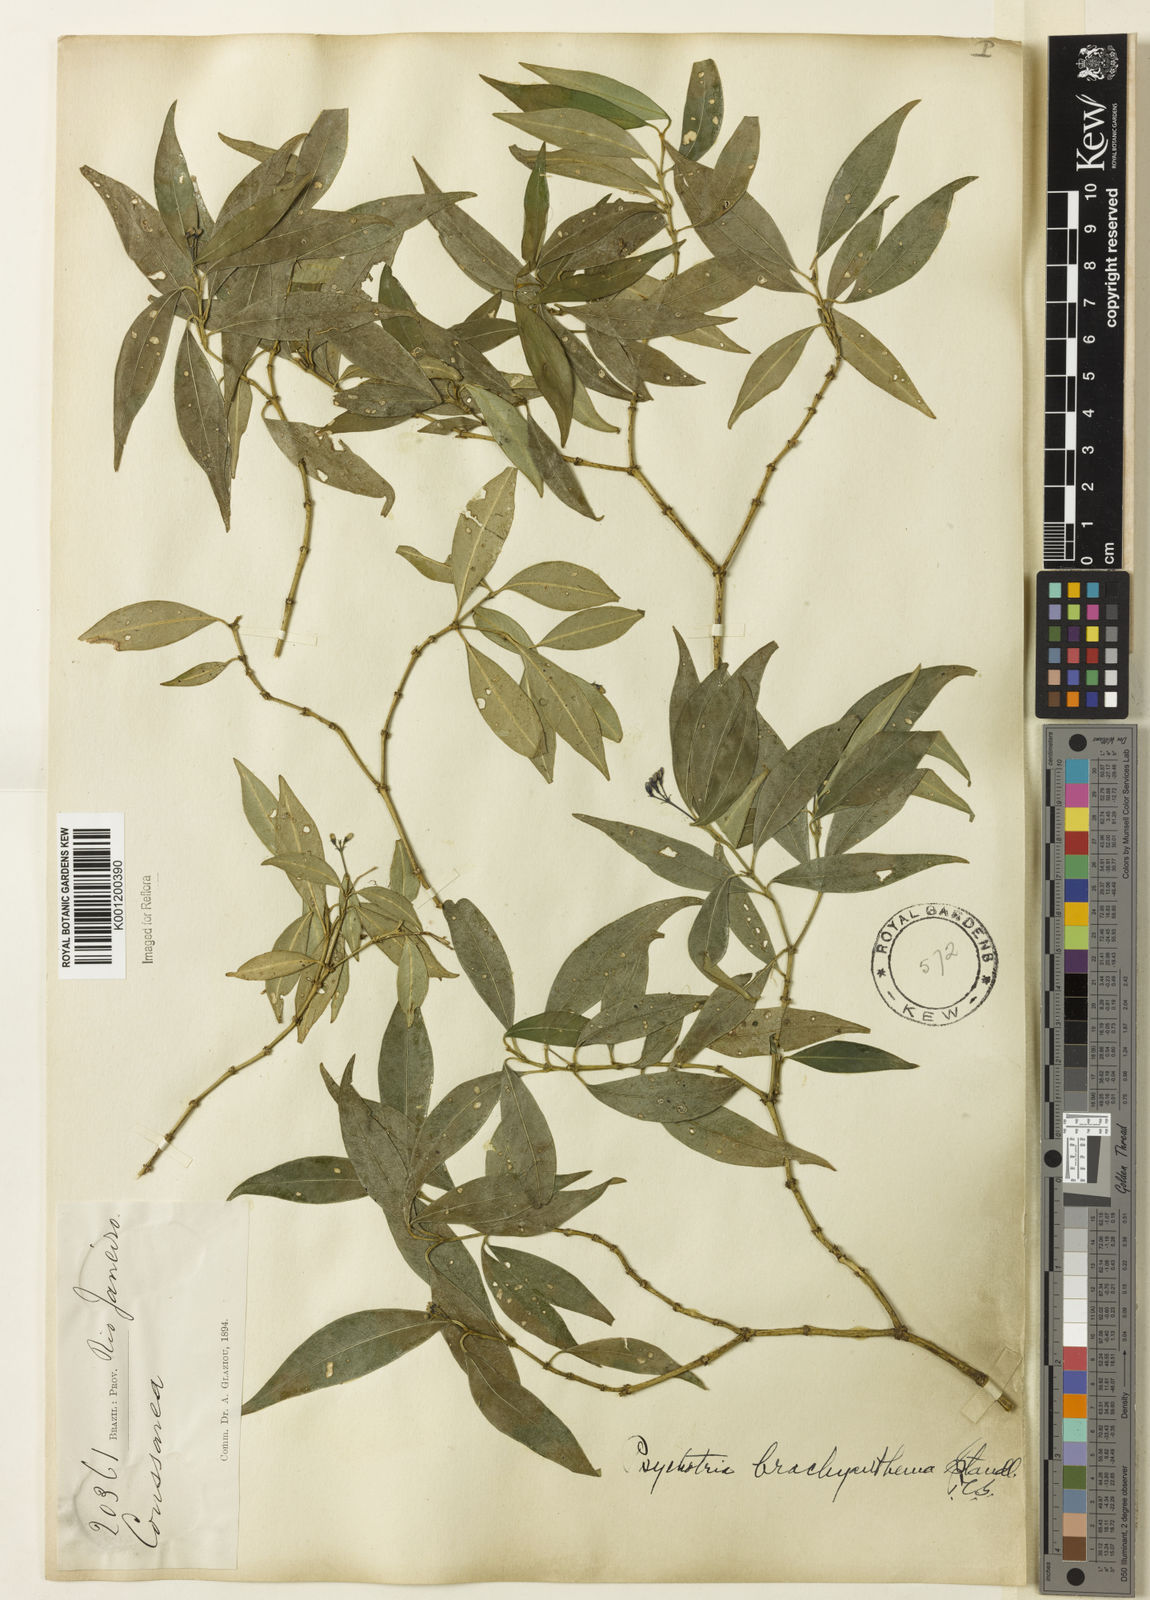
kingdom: Plantae
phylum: Tracheophyta
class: Magnoliopsida
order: Gentianales
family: Rubiaceae
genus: Psychotria
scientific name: Psychotria brachyanthema
